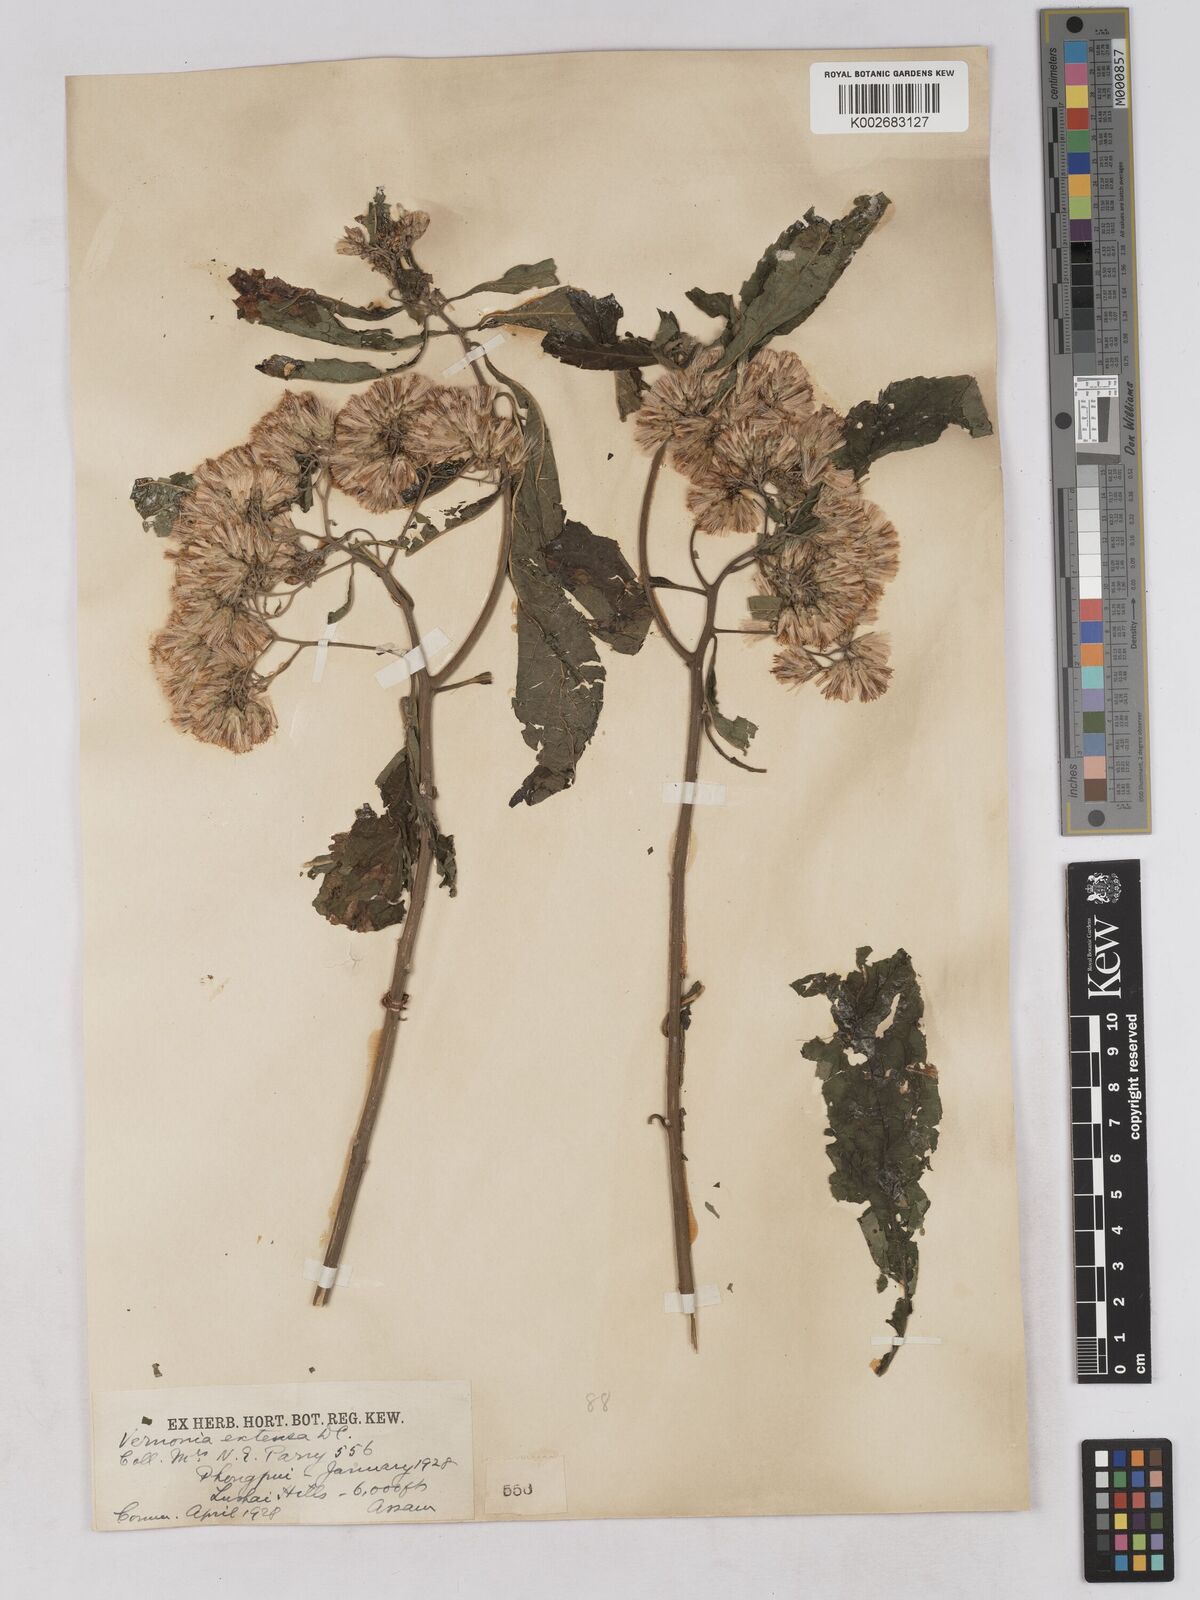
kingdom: Plantae
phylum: Tracheophyta
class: Magnoliopsida
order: Asterales
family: Asteraceae
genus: Gymnanthemum
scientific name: Gymnanthemum extensum
